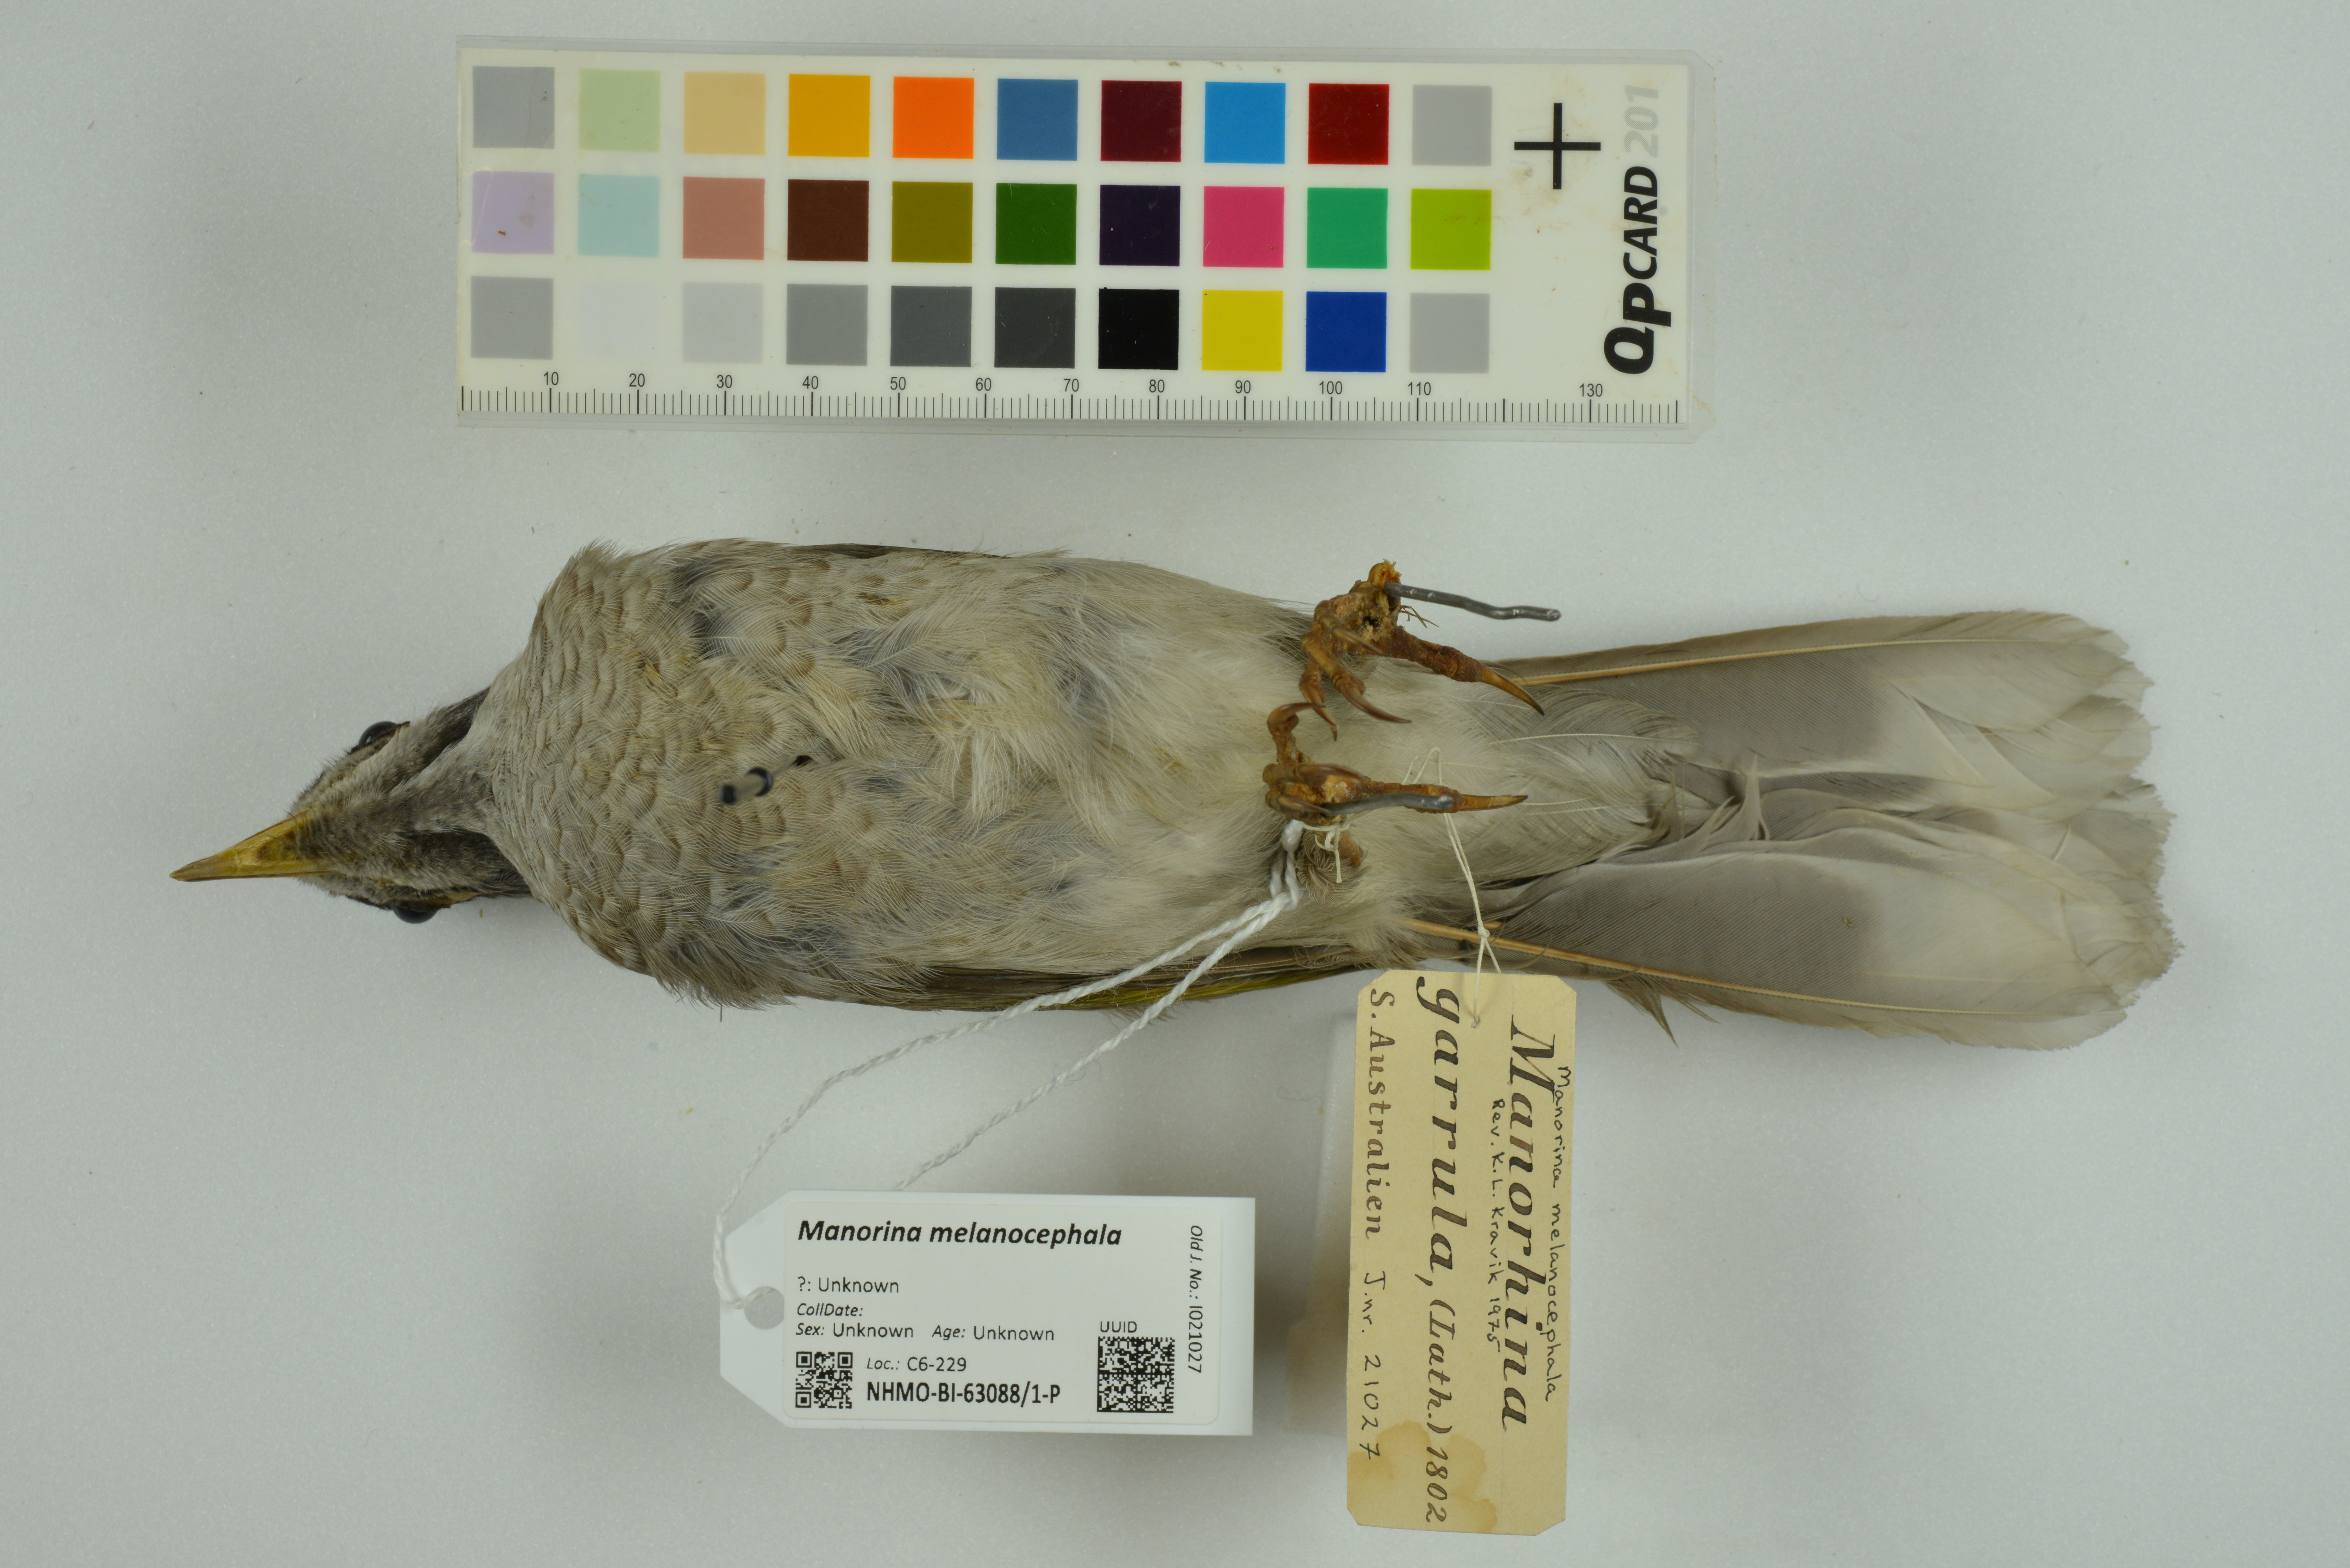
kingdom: Animalia
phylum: Chordata
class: Aves
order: Passeriformes
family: Meliphagidae
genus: Manorina
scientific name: Manorina melanocephala
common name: Noisy miner
